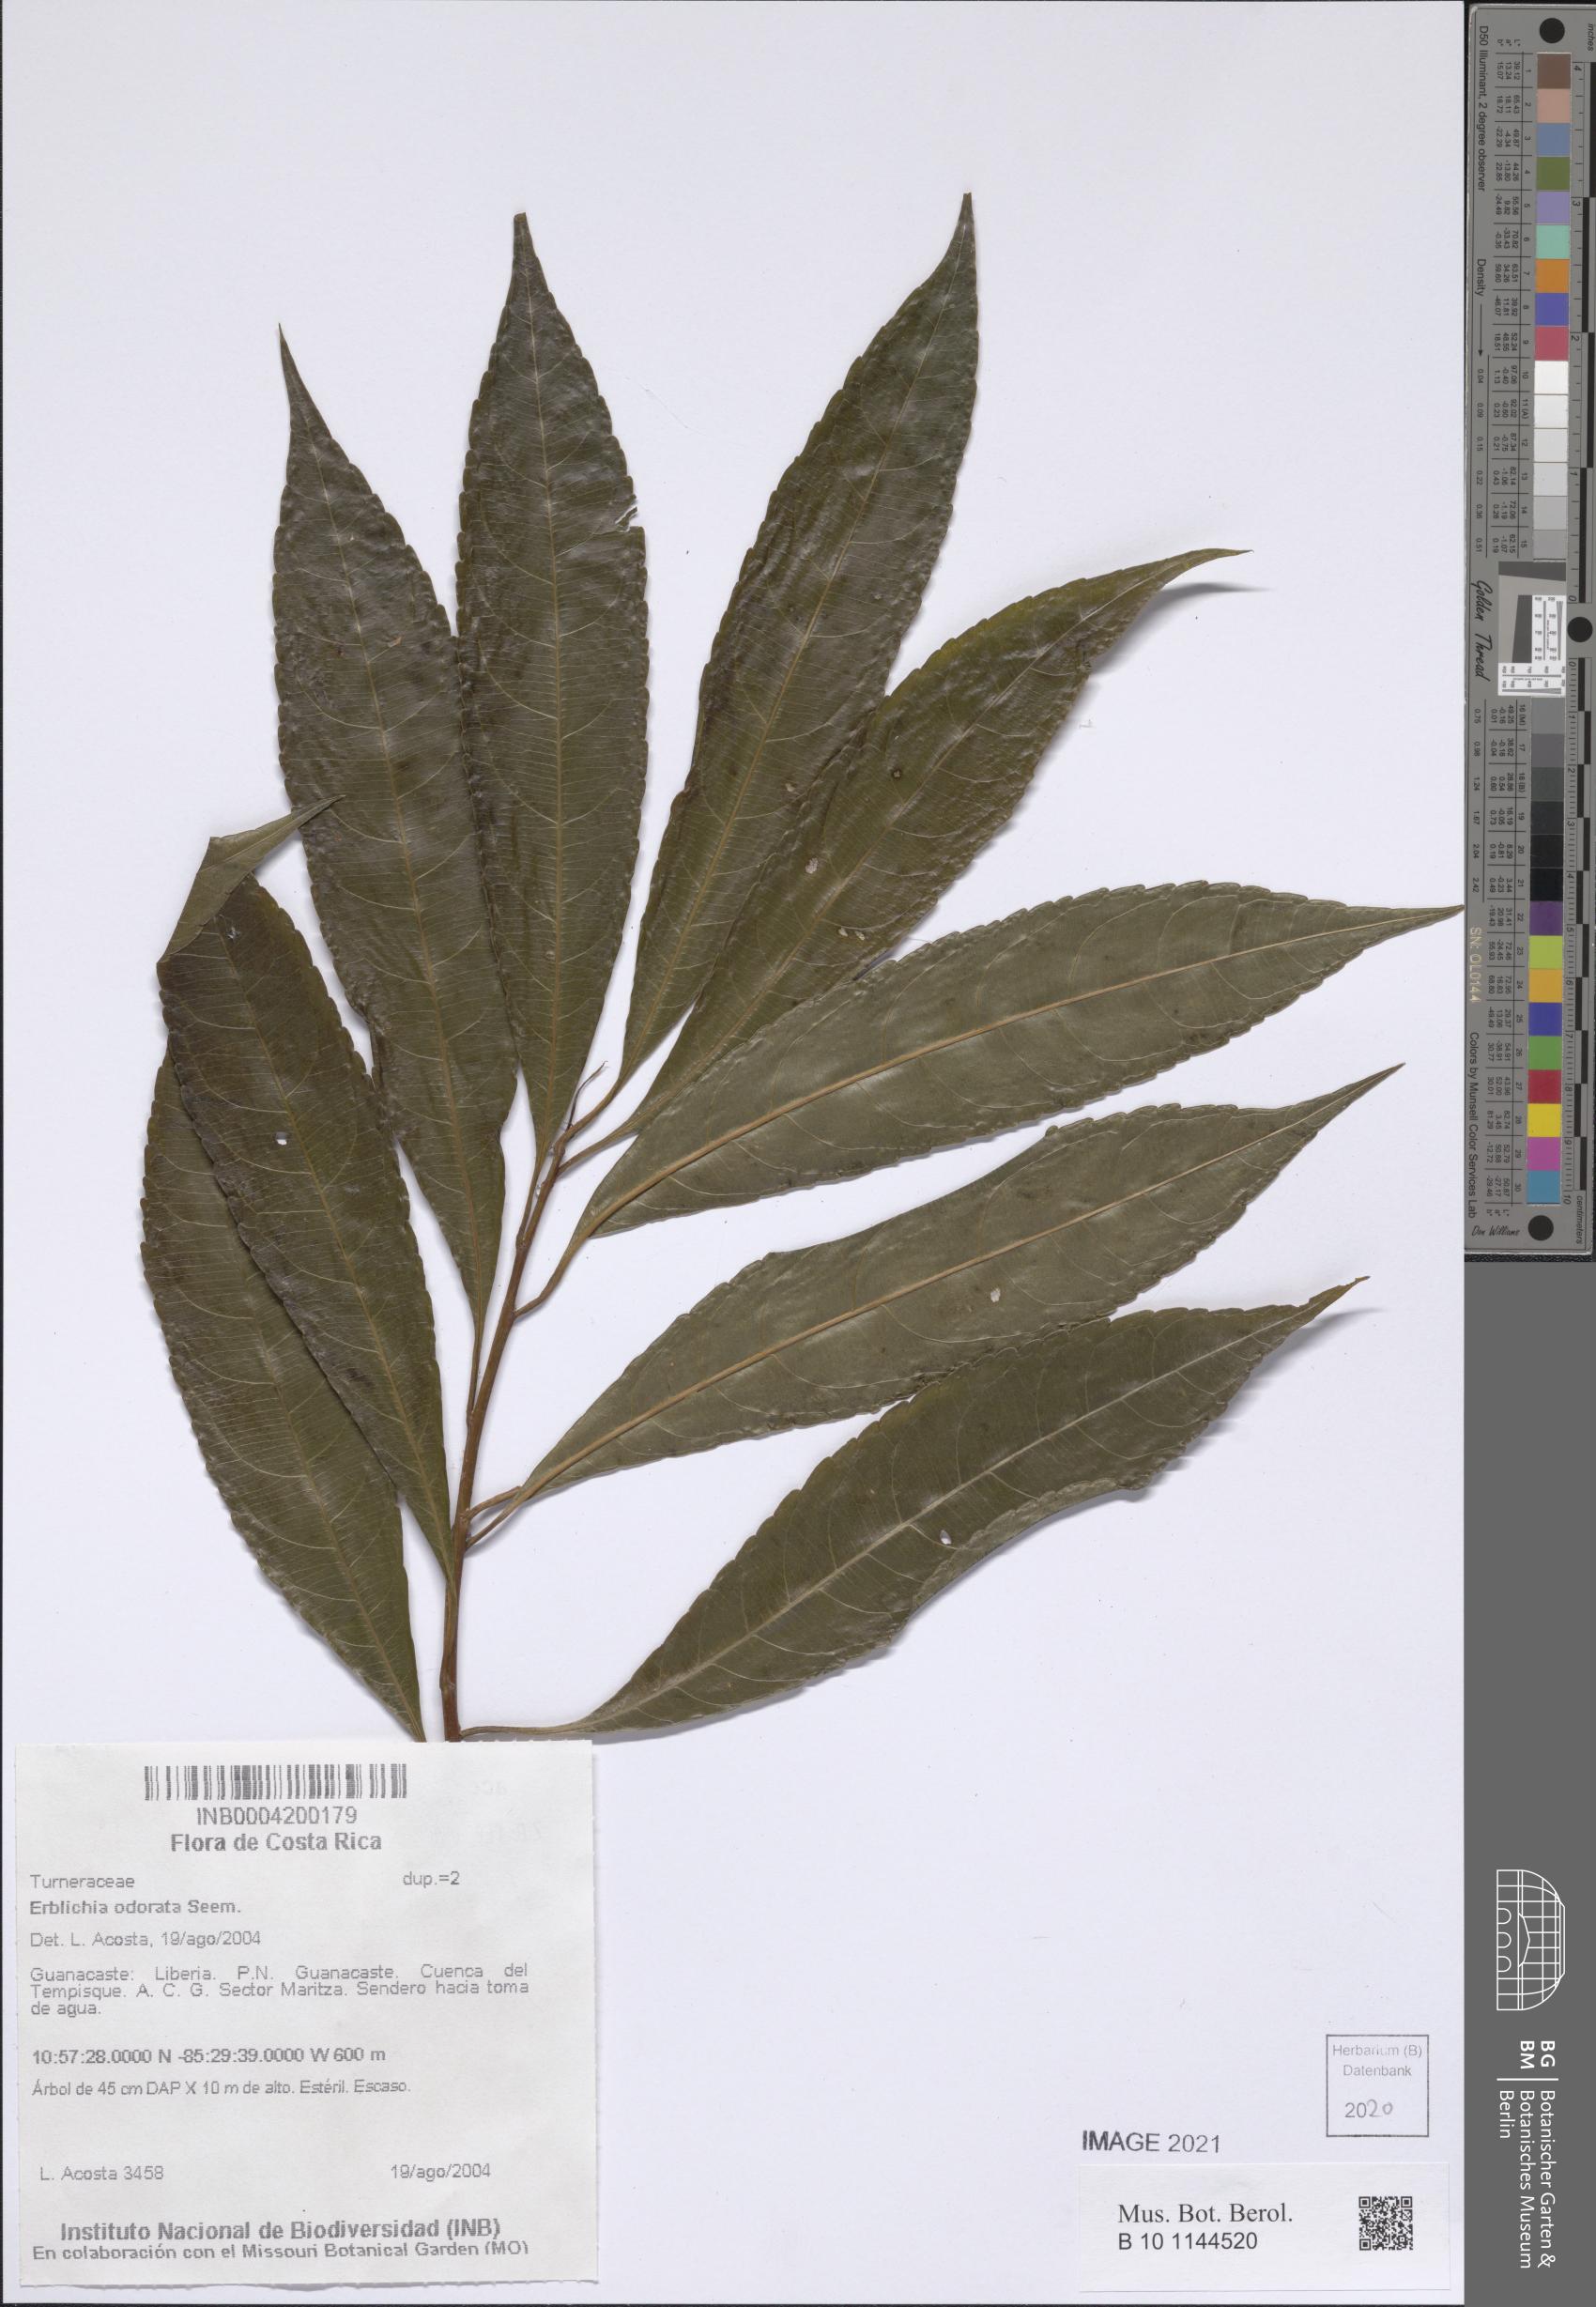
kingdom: Plantae
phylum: Tracheophyta
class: Magnoliopsida
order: Malpighiales
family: Turneraceae
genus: Erblichia
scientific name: Erblichia odorata
